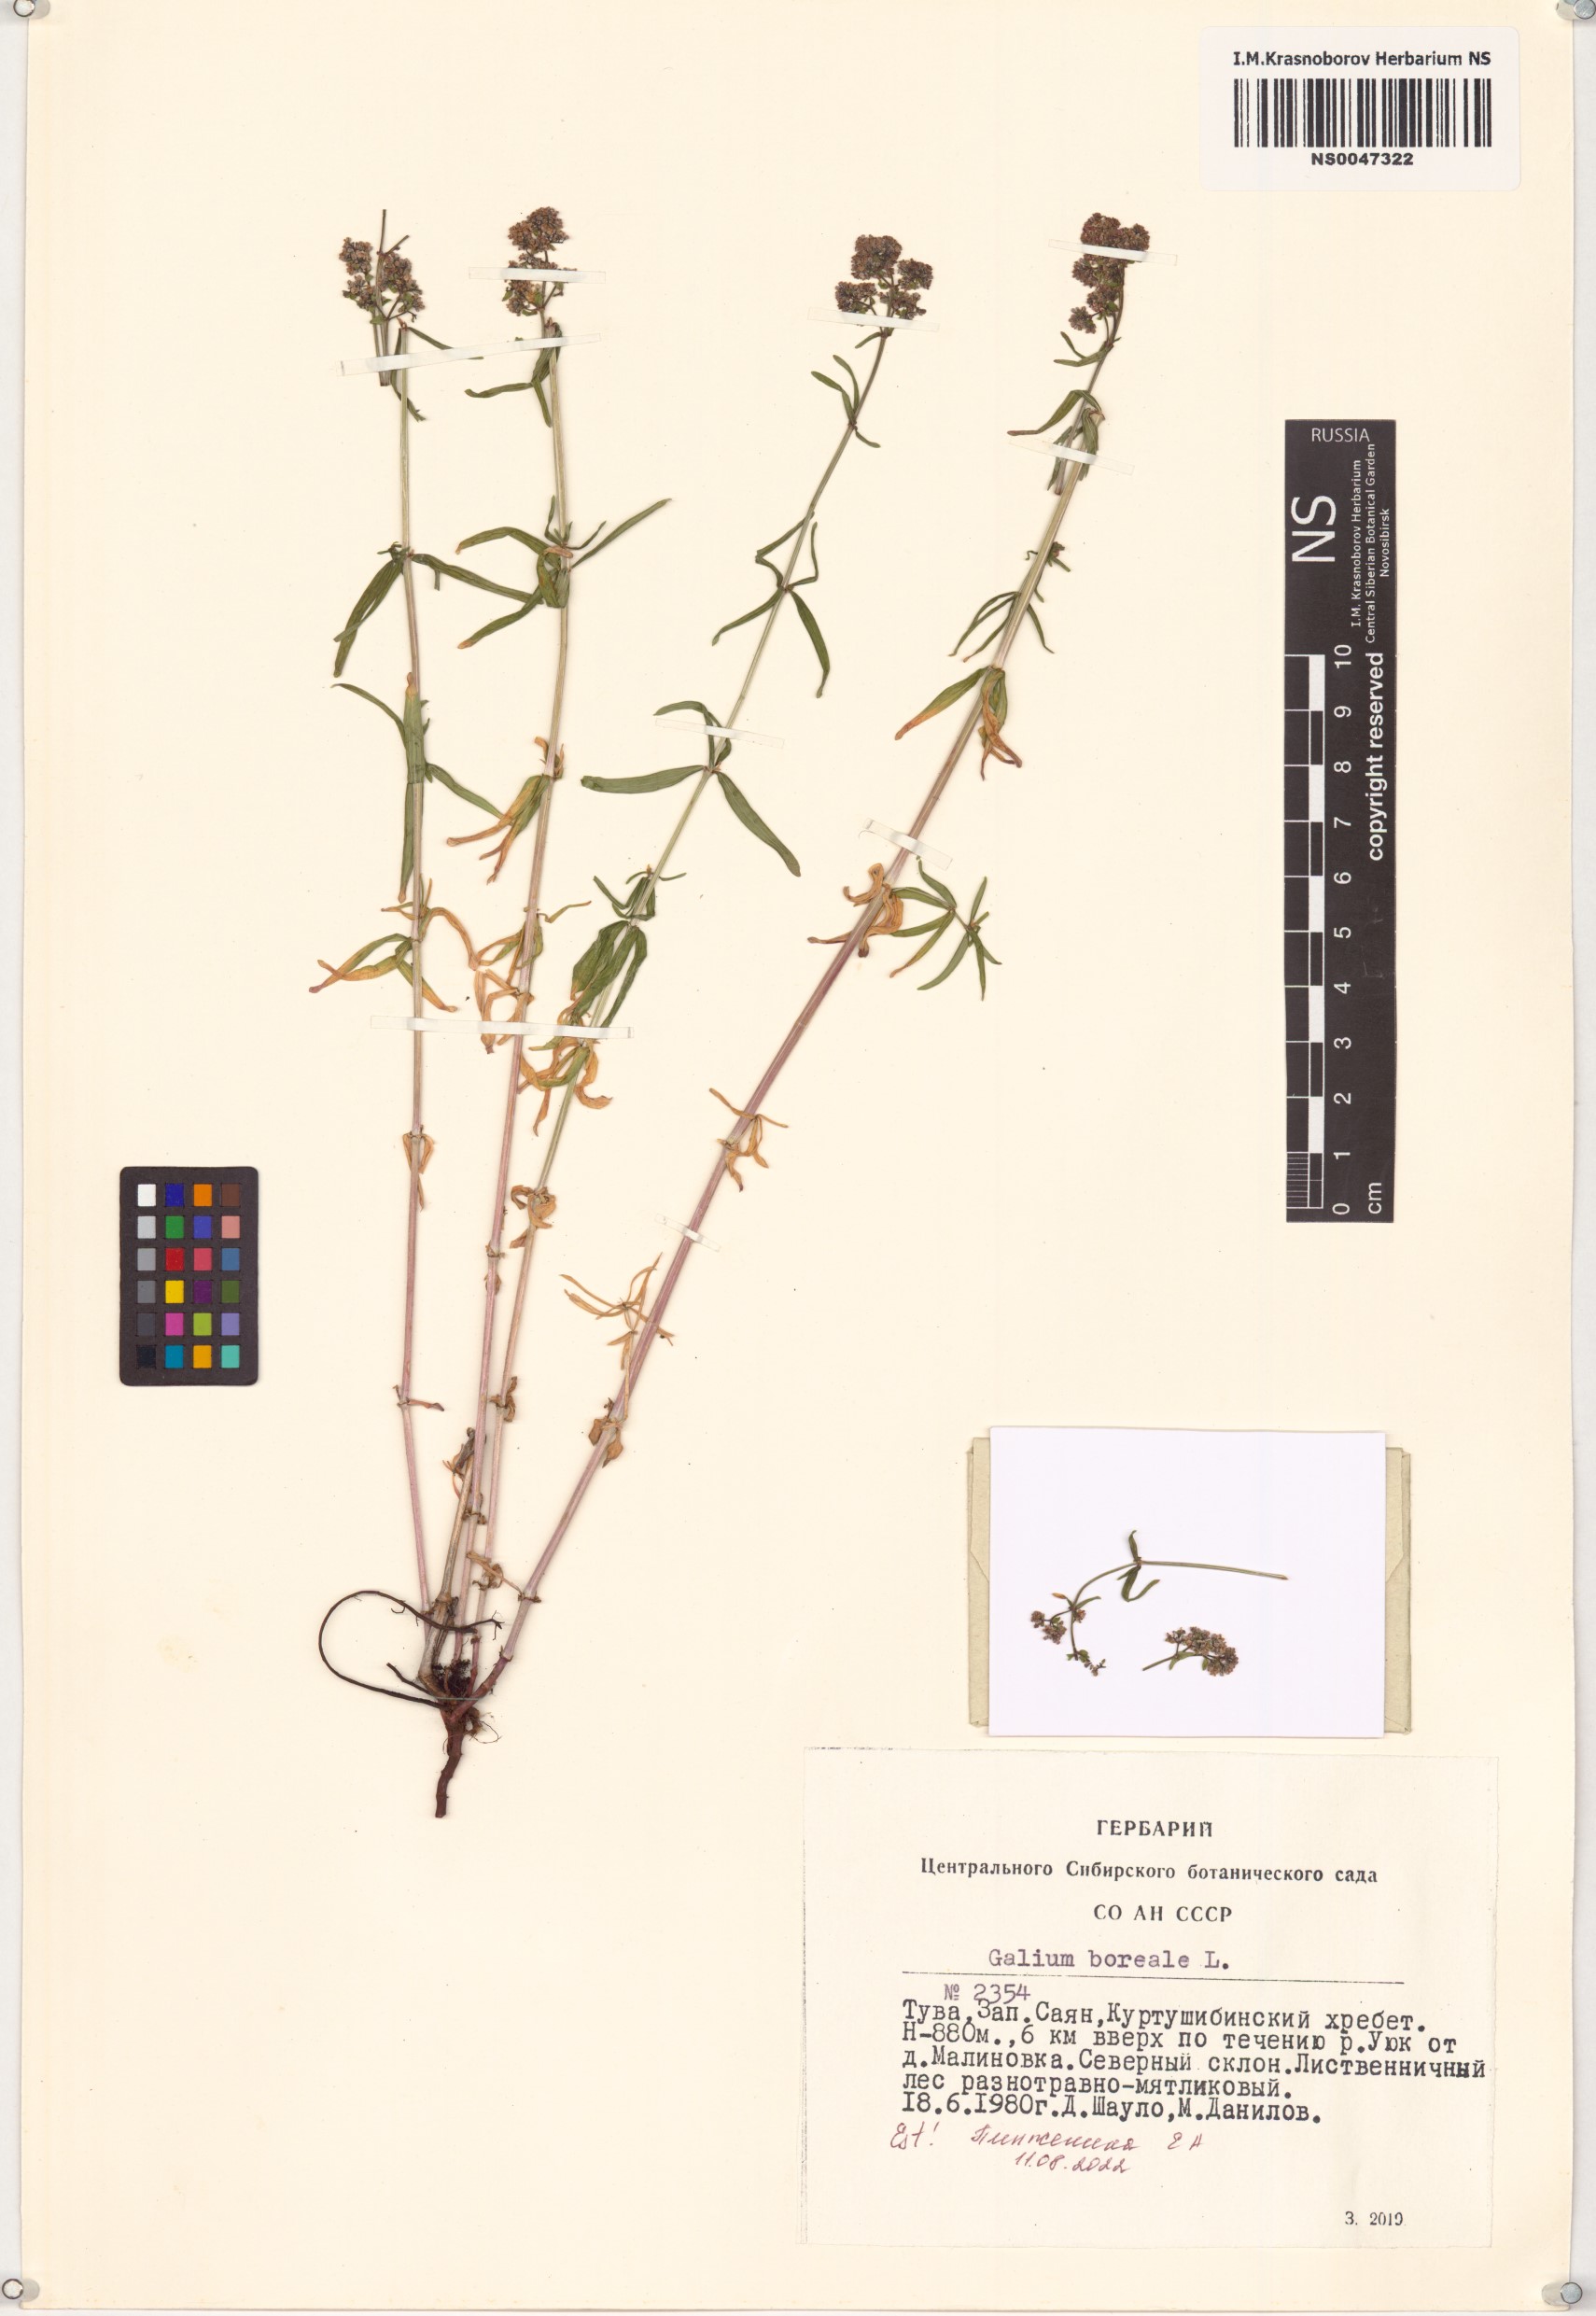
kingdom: Plantae
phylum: Tracheophyta
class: Magnoliopsida
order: Gentianales
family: Rubiaceae
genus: Galium
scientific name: Galium boreale
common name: Northern bedstraw
